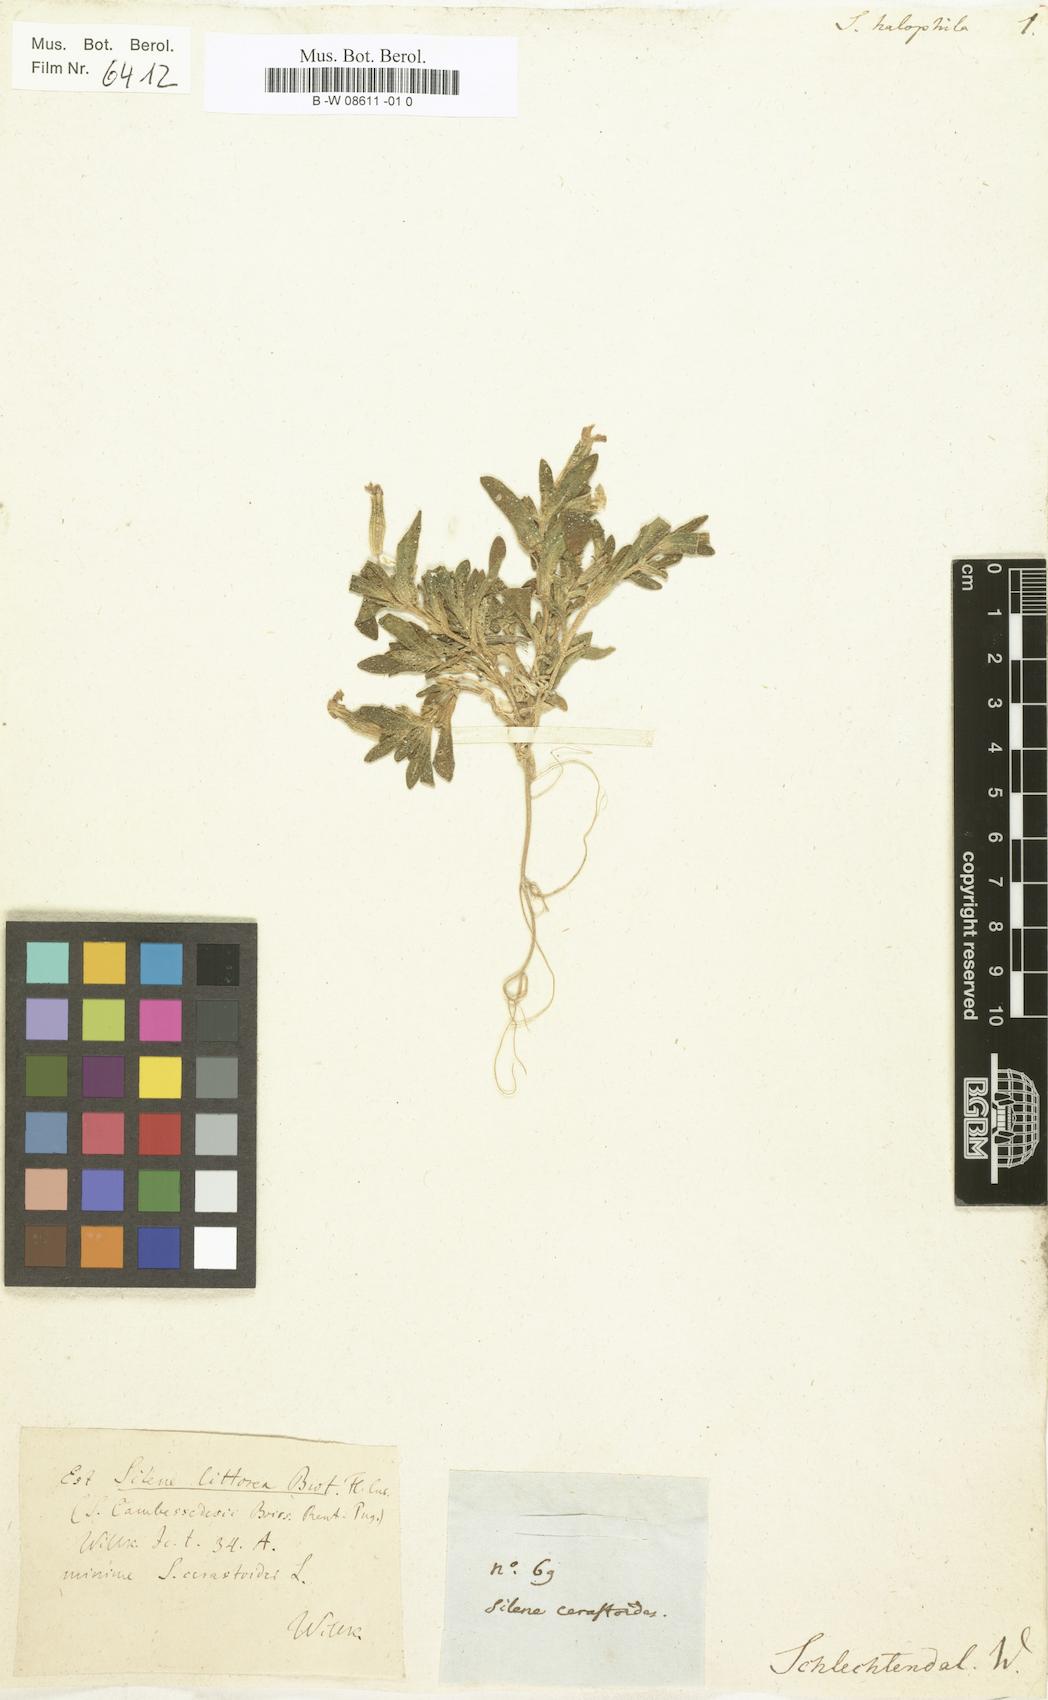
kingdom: Plantae
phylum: Tracheophyta
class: Magnoliopsida
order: Caryophyllales
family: Caryophyllaceae
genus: Silene
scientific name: Silene littorea
